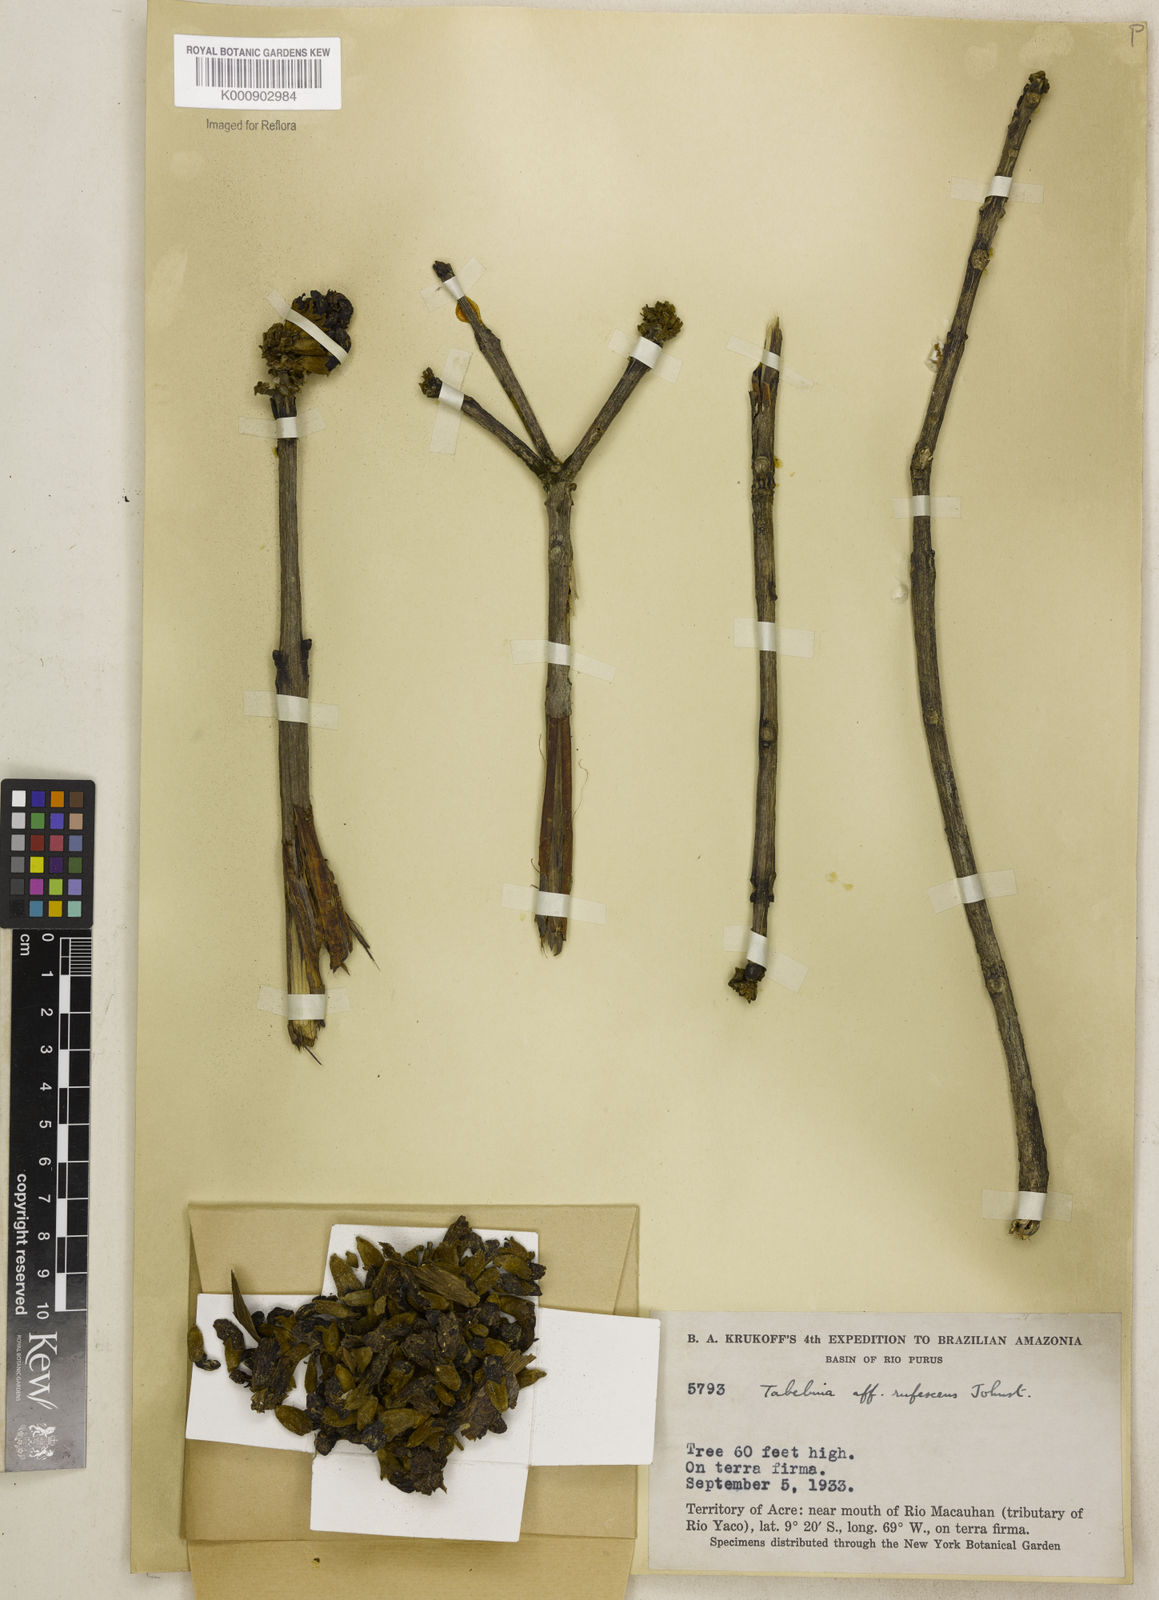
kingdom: Plantae
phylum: Tracheophyta
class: Magnoliopsida
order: Lamiales
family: Bignoniaceae
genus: Handroanthus
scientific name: Handroanthus chrysanthus
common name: Trumpet trees
